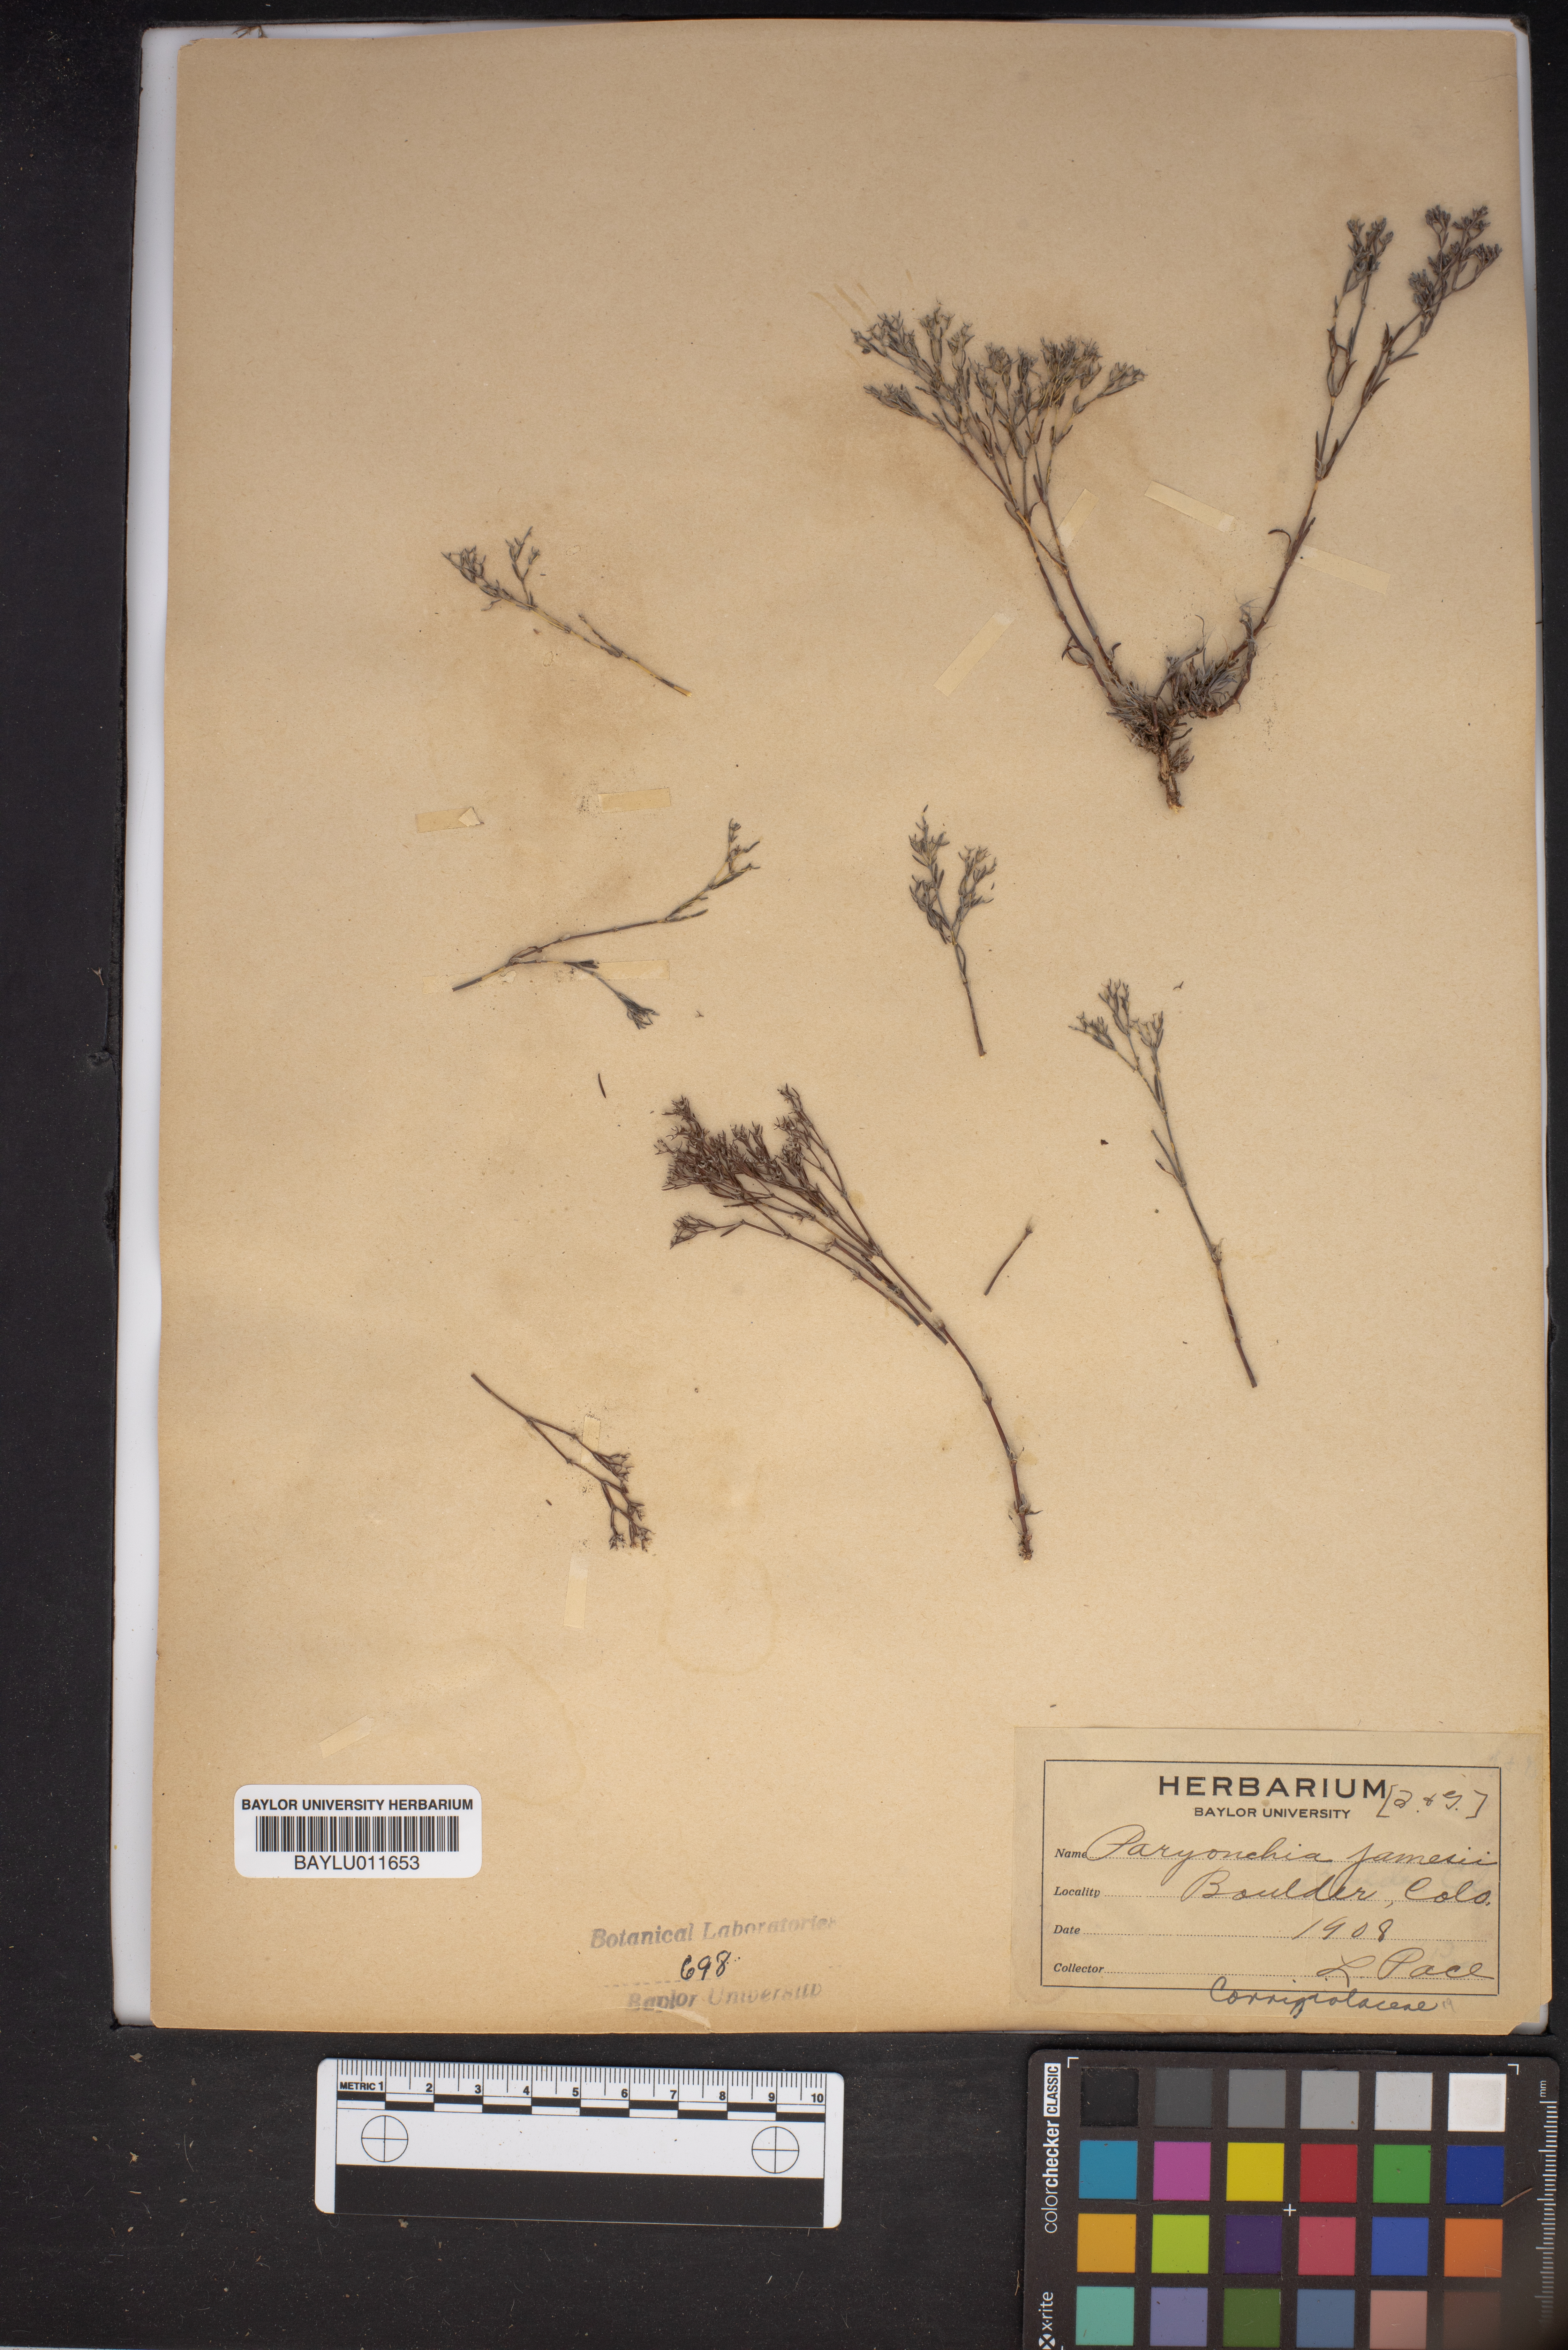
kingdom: Plantae
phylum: Tracheophyta
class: Magnoliopsida
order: Caryophyllales
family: Caryophyllaceae
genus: Paronychia
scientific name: Paronychia jamesii
